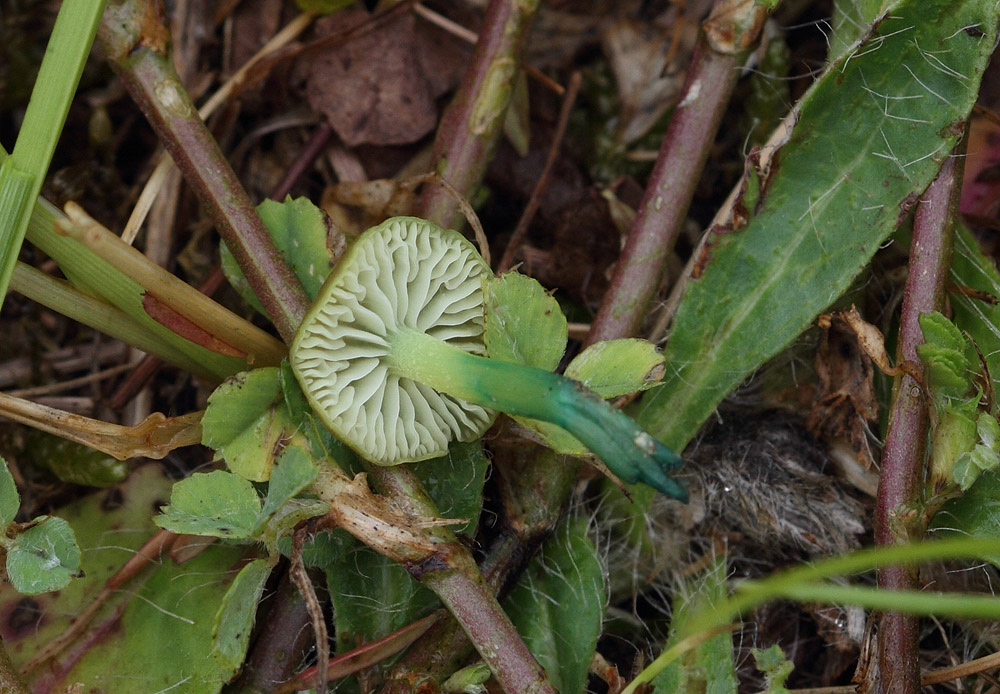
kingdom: Fungi
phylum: Basidiomycota
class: Agaricomycetes
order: Agaricales
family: Entolomataceae
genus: Entoloma
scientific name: Entoloma incanum
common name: grøngul rødblad
